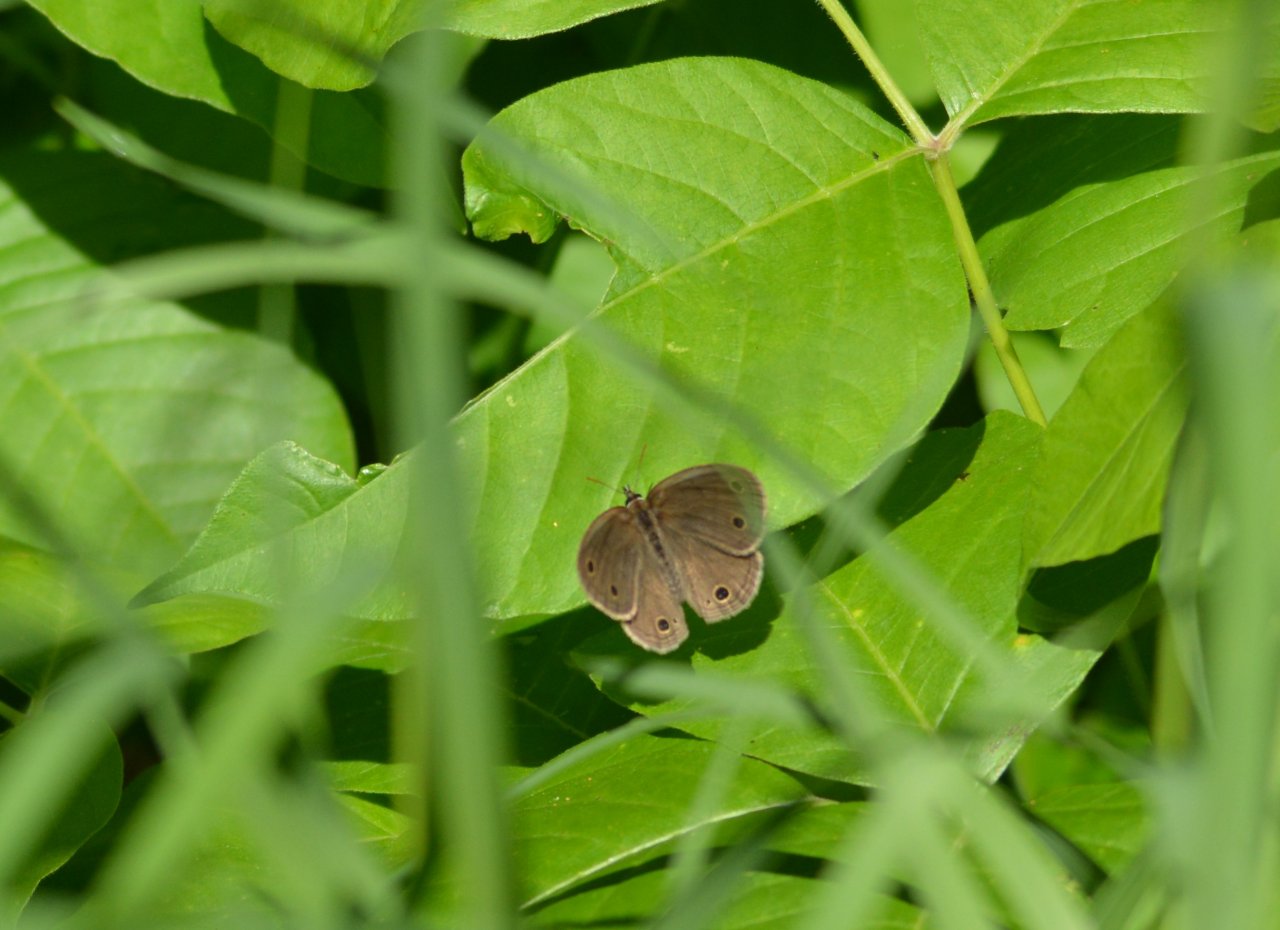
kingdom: Animalia
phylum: Arthropoda
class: Insecta
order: Lepidoptera
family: Nymphalidae
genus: Euptychia
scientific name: Euptychia cymela
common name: Little Wood Satyr
